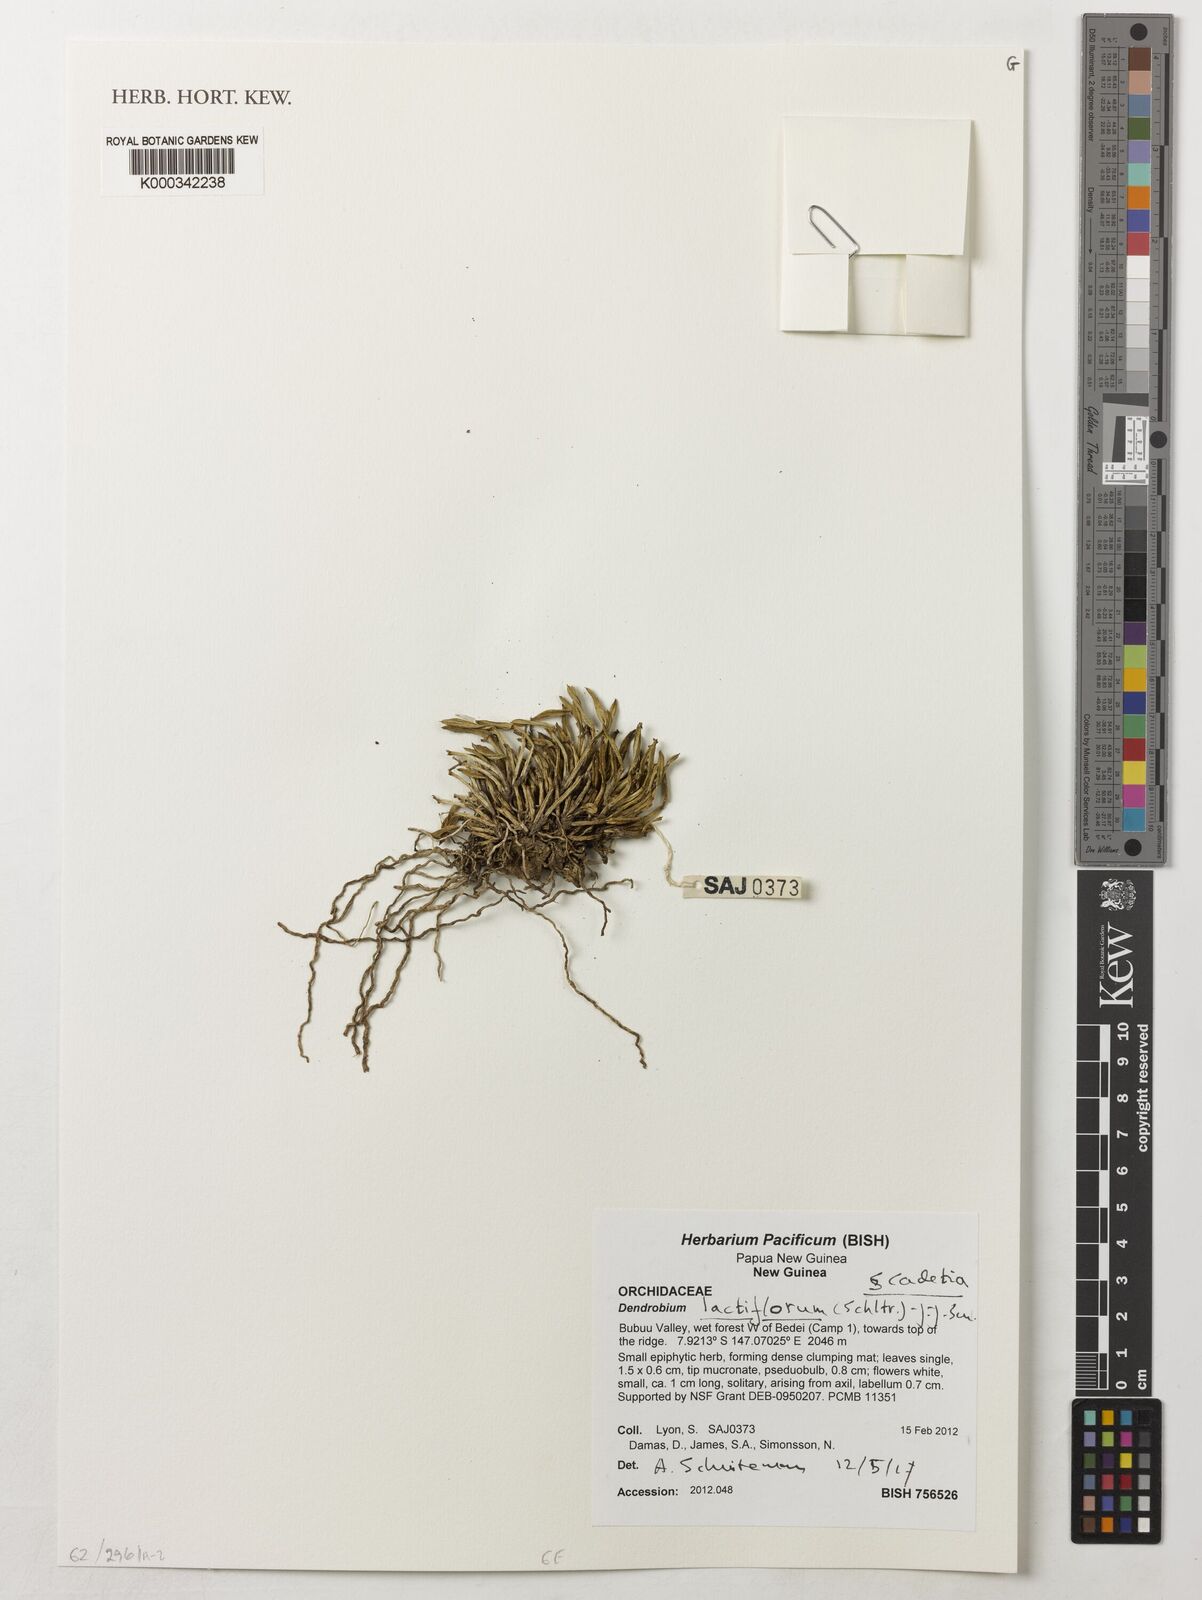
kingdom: Plantae
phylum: Tracheophyta
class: Liliopsida
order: Asparagales
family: Orchidaceae
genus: Dendrobium
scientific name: Dendrobium subretusum
